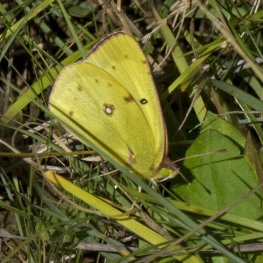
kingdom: Animalia
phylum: Arthropoda
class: Insecta
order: Lepidoptera
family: Pieridae
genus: Colias
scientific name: Colias philodice
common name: Clouded Sulphur
